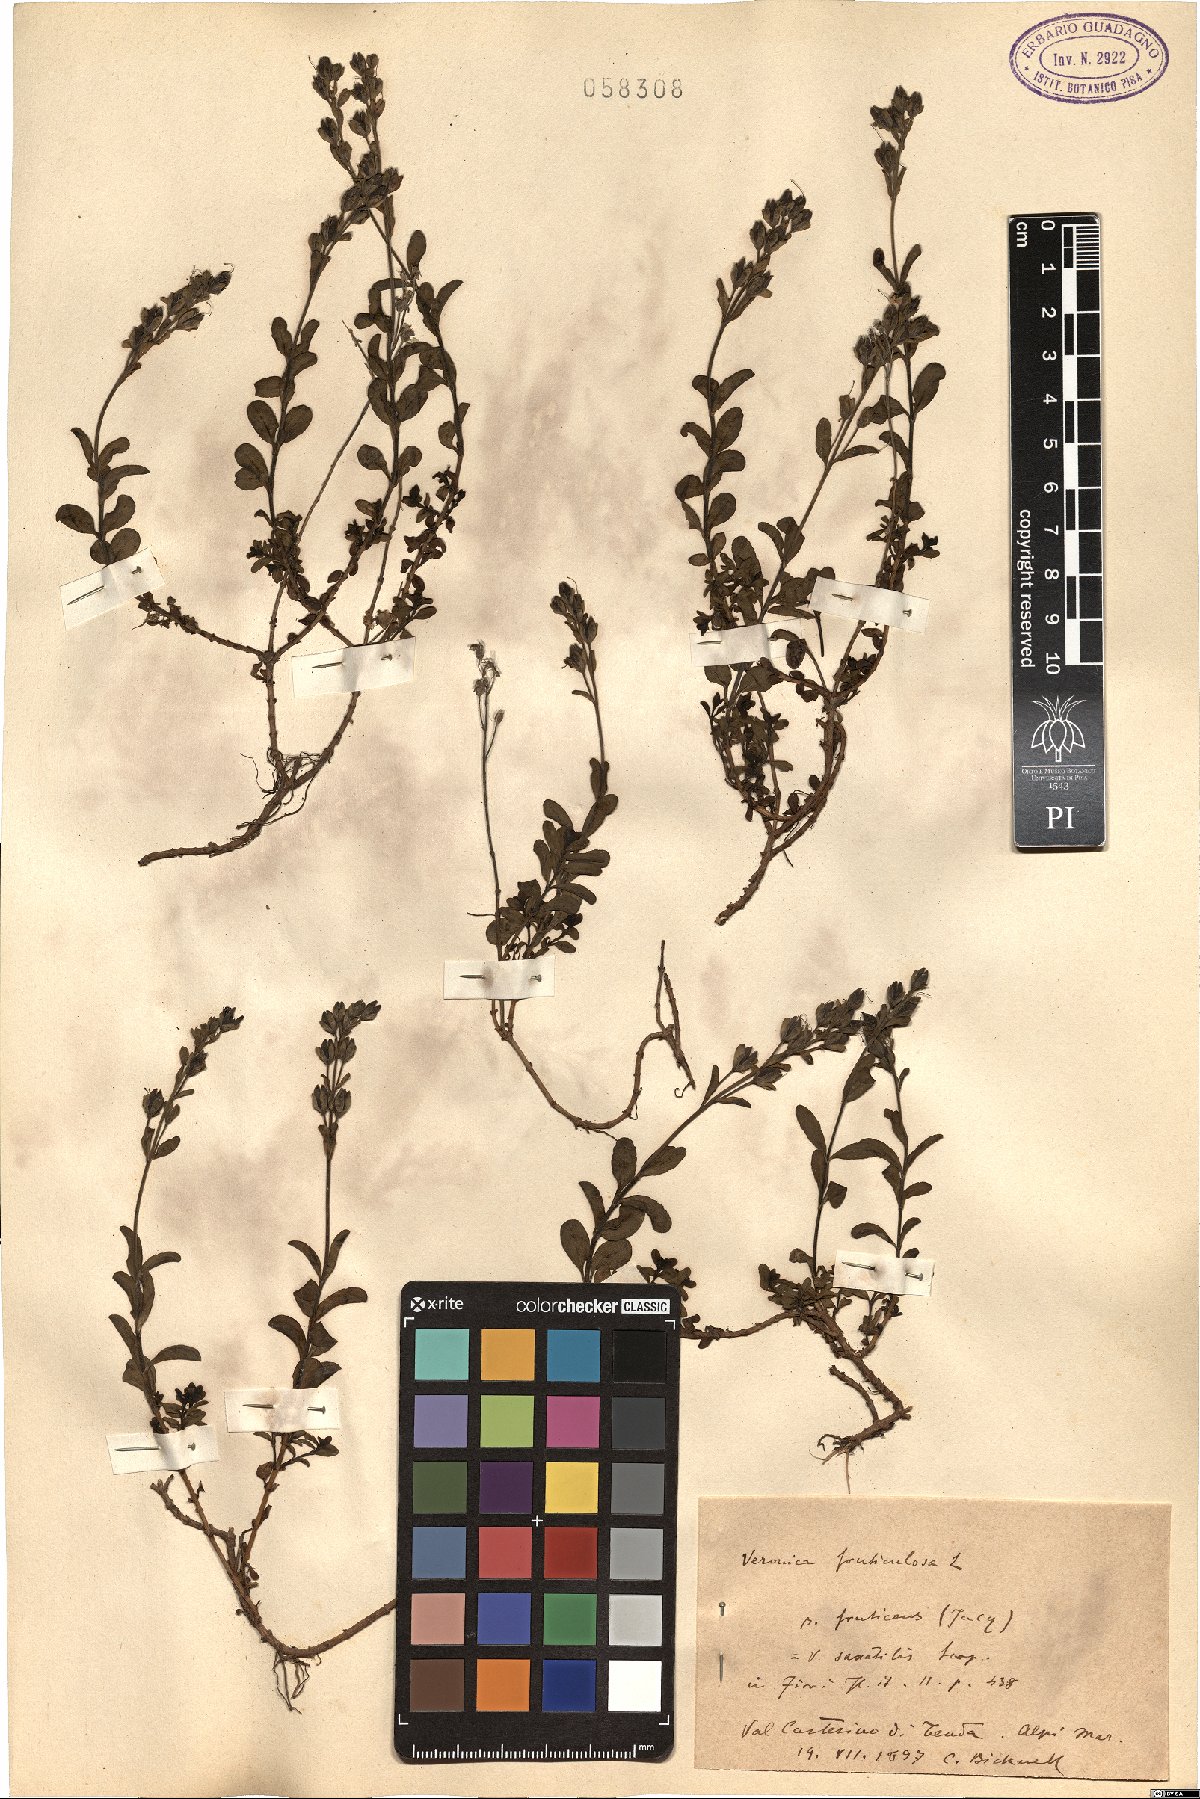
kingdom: Plantae
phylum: Tracheophyta
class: Magnoliopsida
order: Lamiales
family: Plantaginaceae
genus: Veronica
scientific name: Veronica fruticulosa
